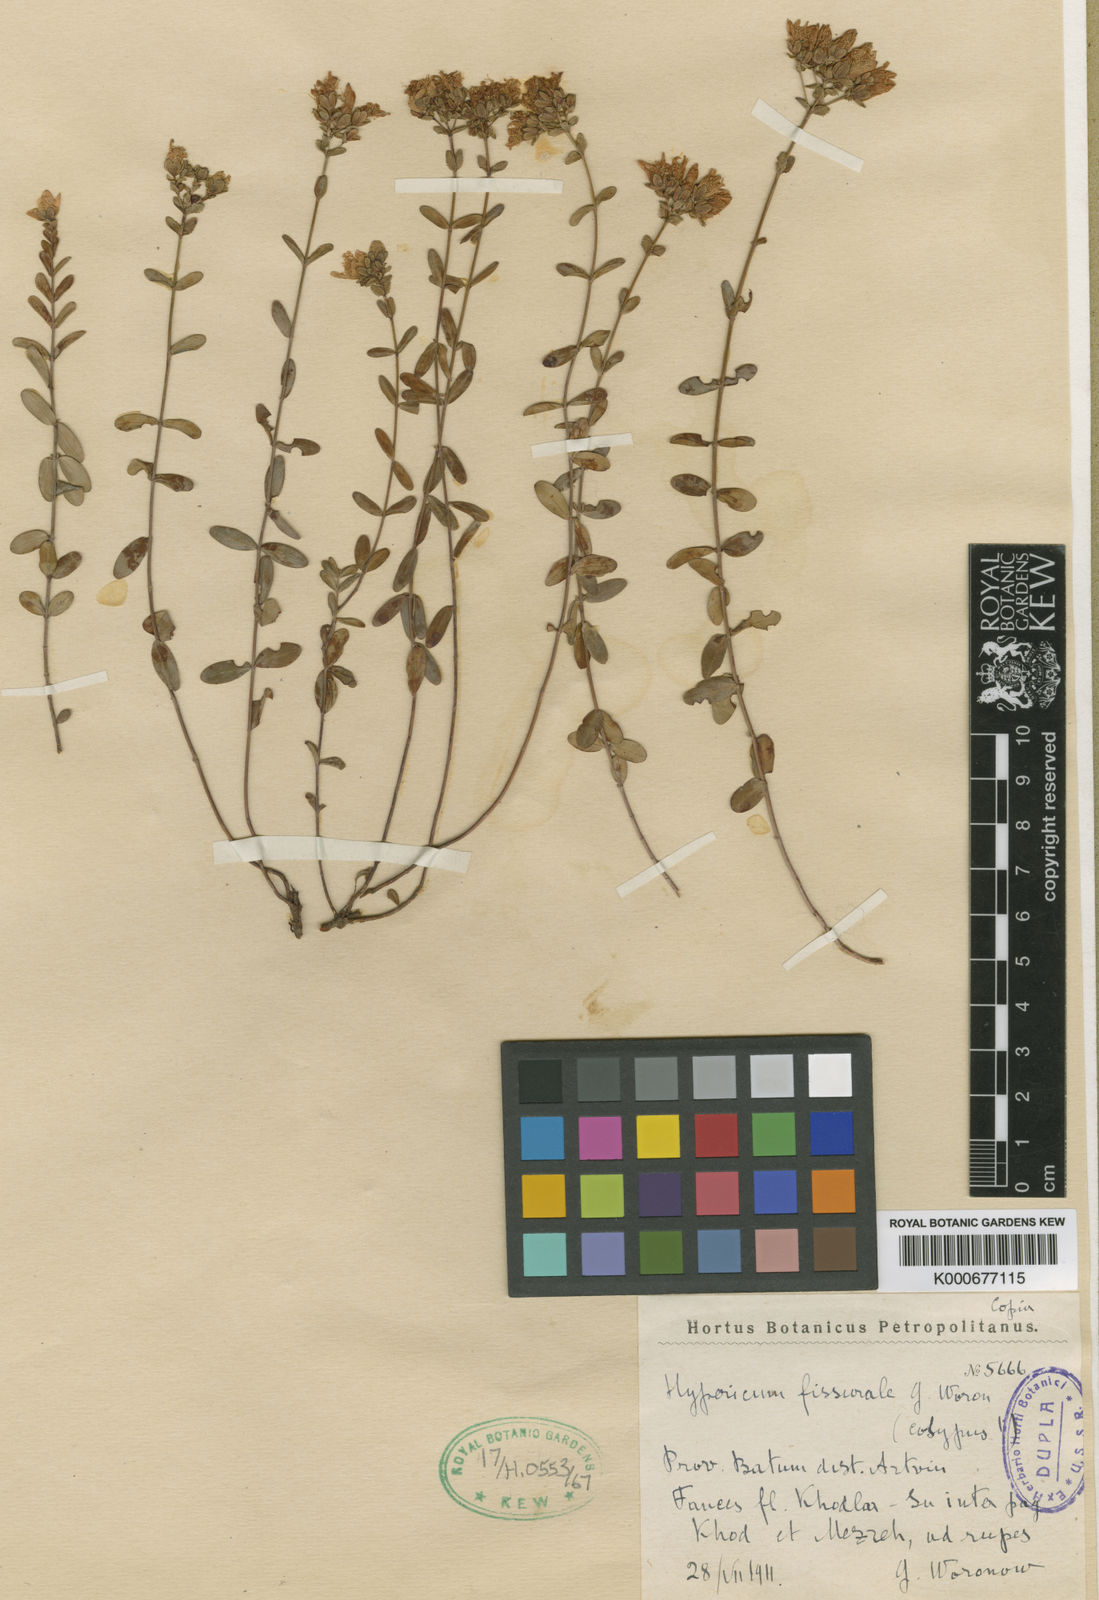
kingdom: Plantae
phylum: Tracheophyta
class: Magnoliopsida
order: Malpighiales
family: Hypericaceae
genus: Hypericum
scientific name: Hypericum fissurale
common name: Cracked saint john's wort
